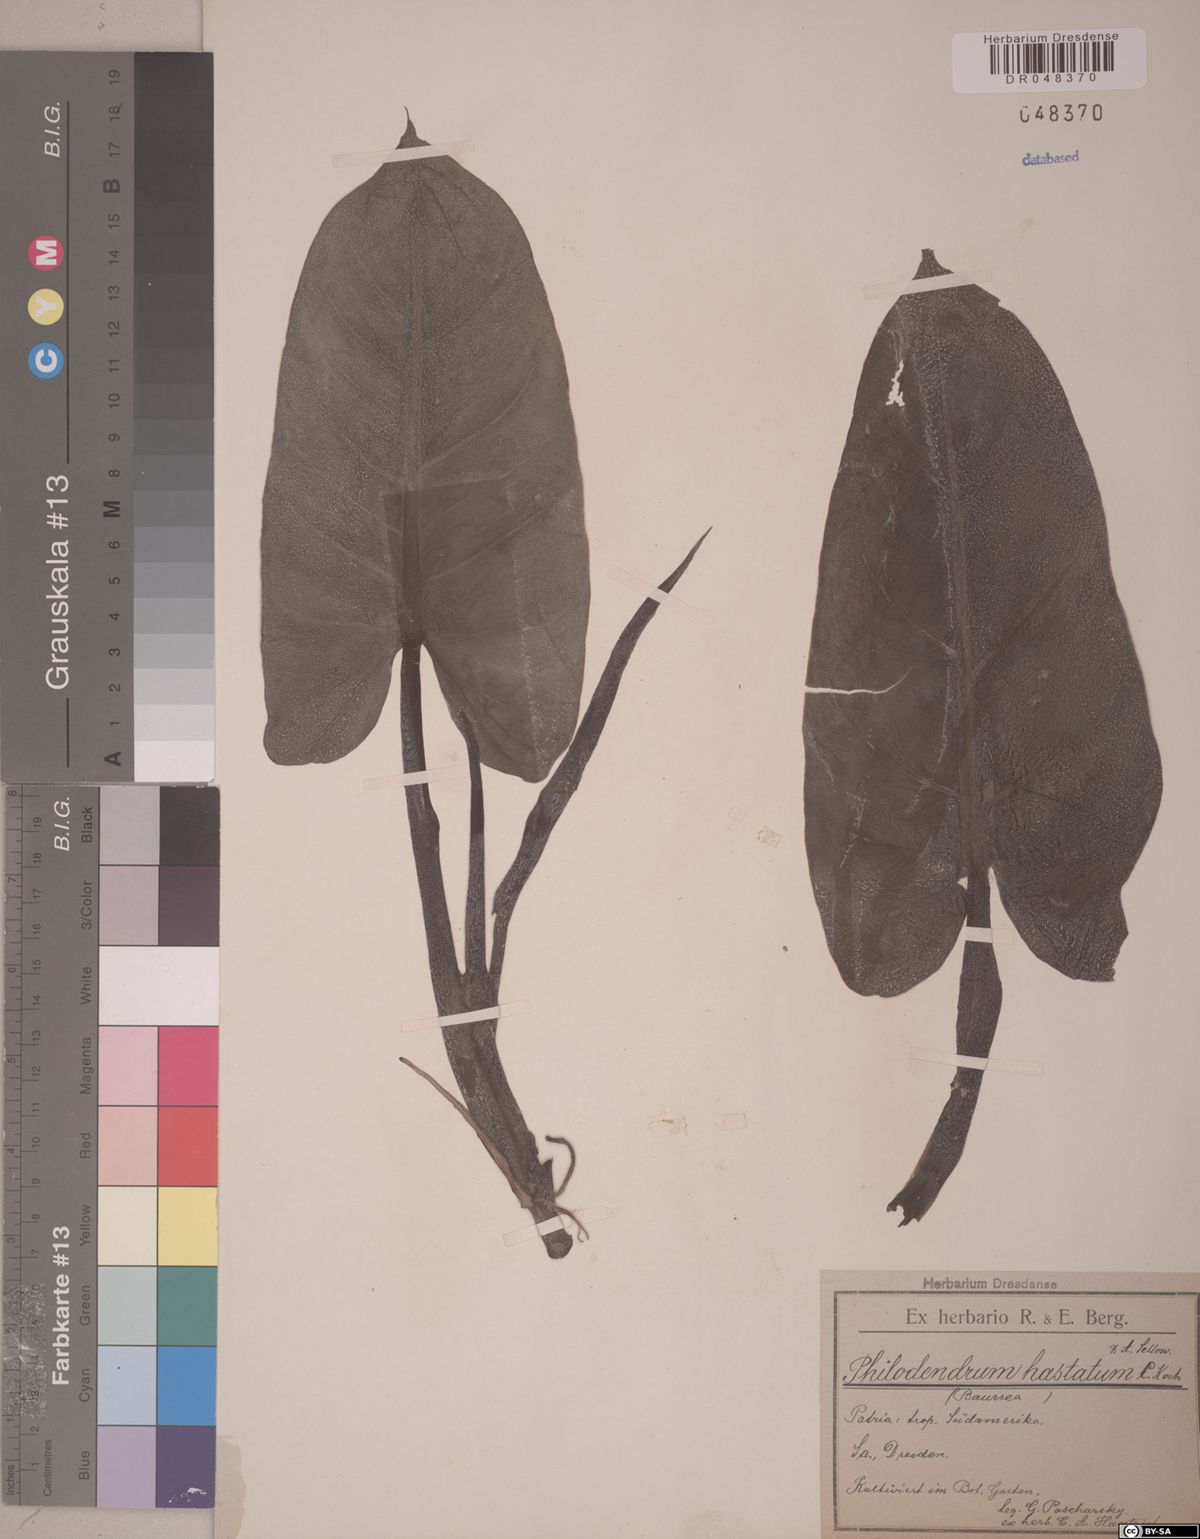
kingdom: Plantae
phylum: Tracheophyta
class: Liliopsida
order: Alismatales
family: Araceae
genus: Philodendron
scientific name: Philodendron hastatum
